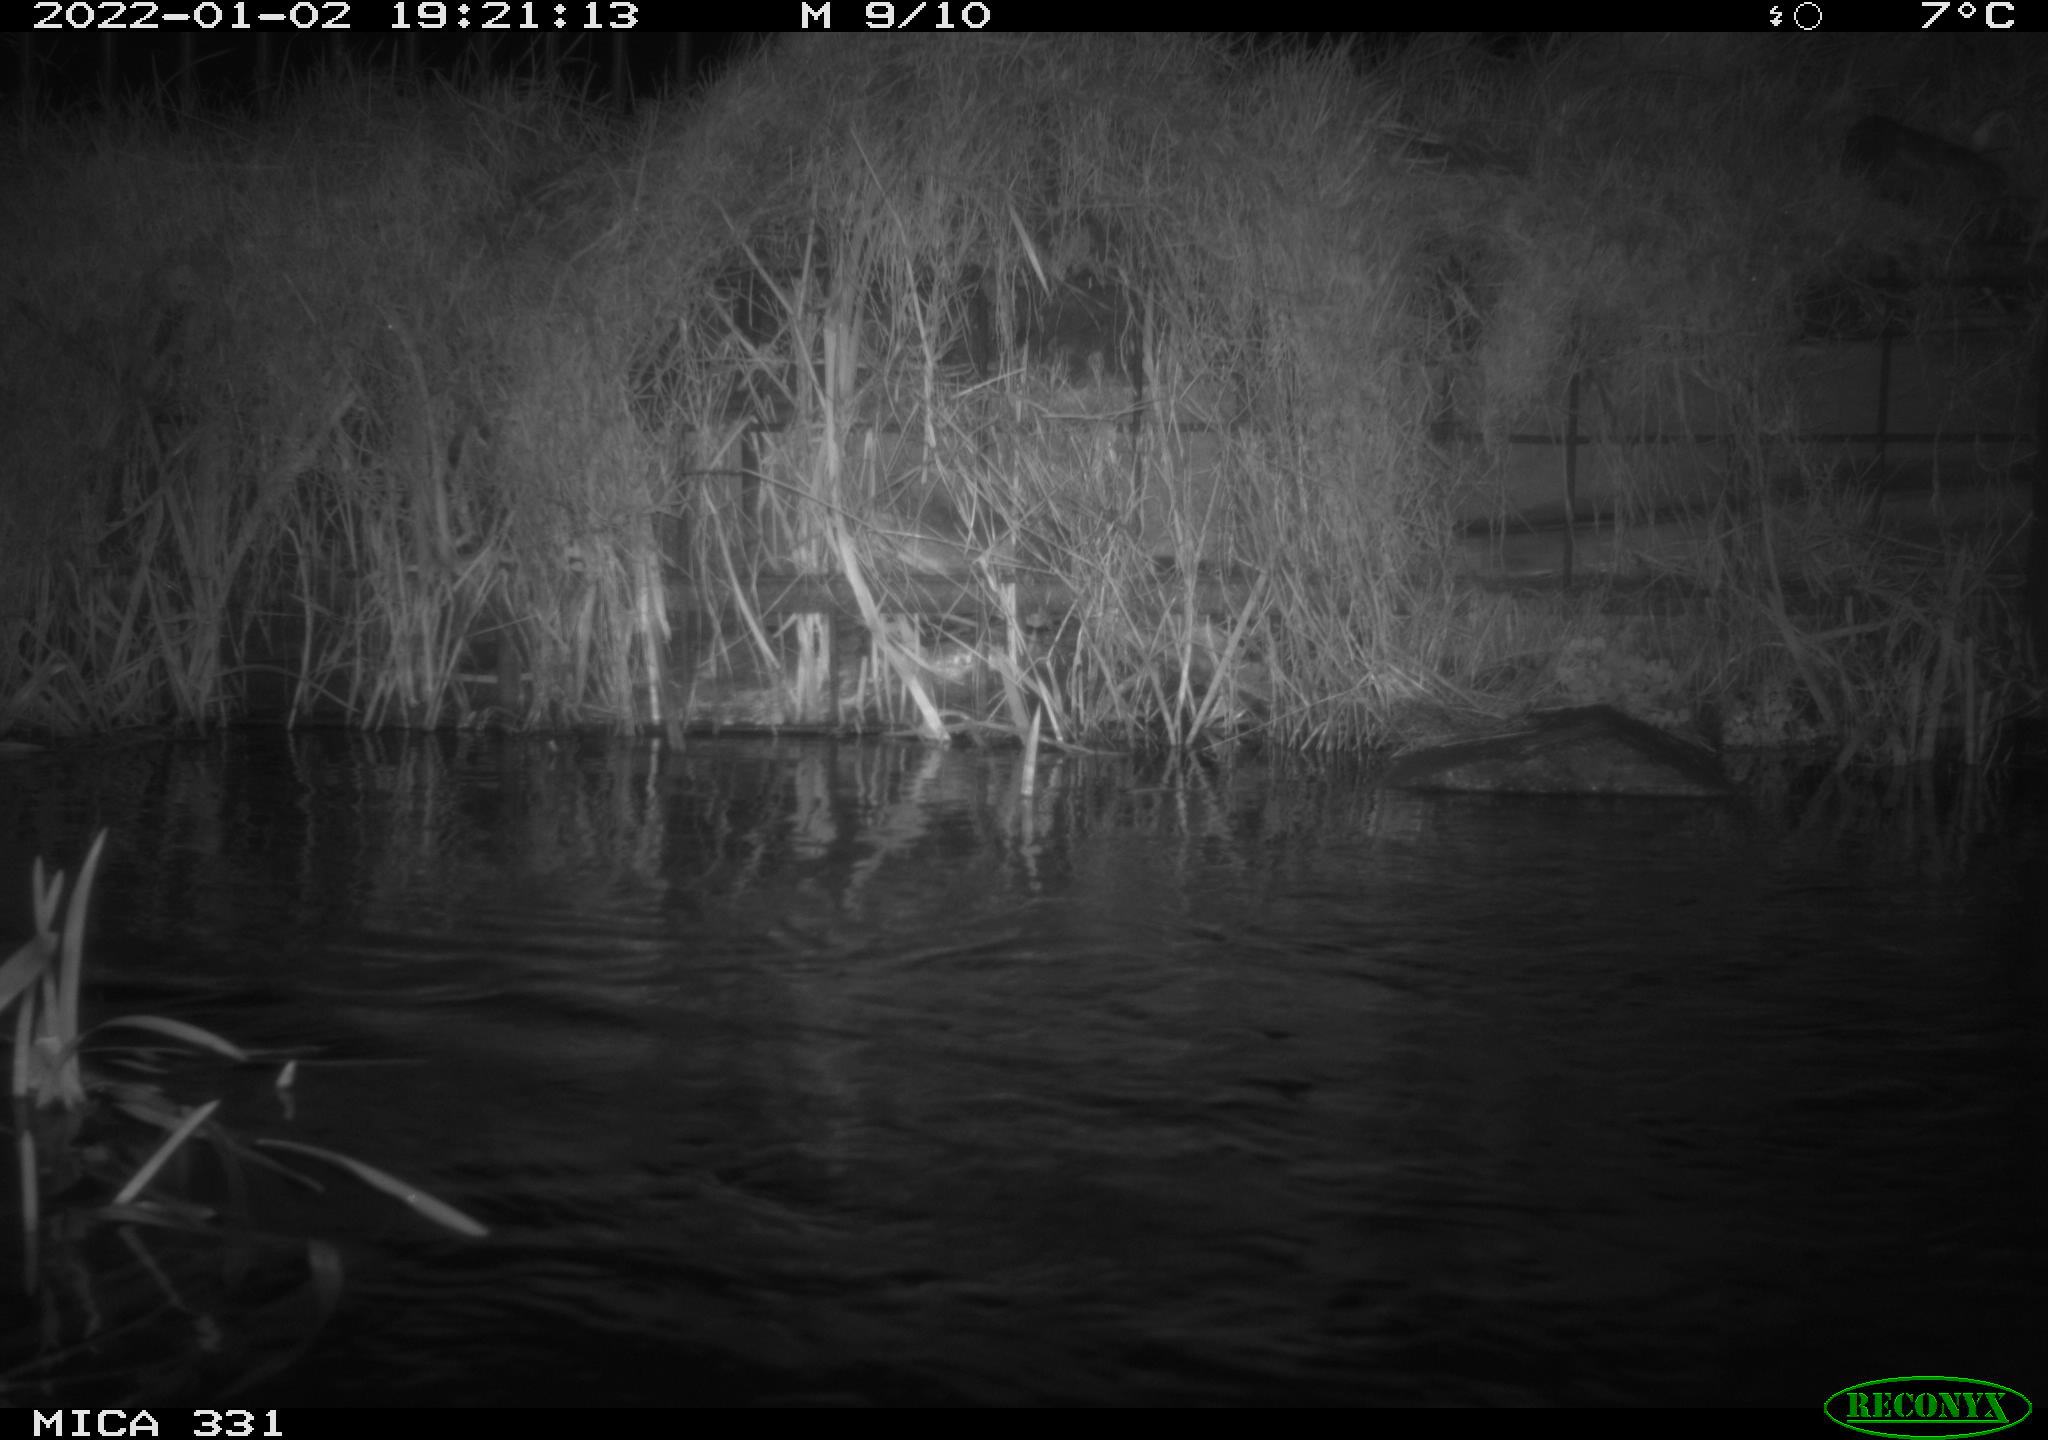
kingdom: Animalia
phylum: Chordata
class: Mammalia
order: Rodentia
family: Muridae
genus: Rattus
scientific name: Rattus norvegicus
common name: Brown rat
